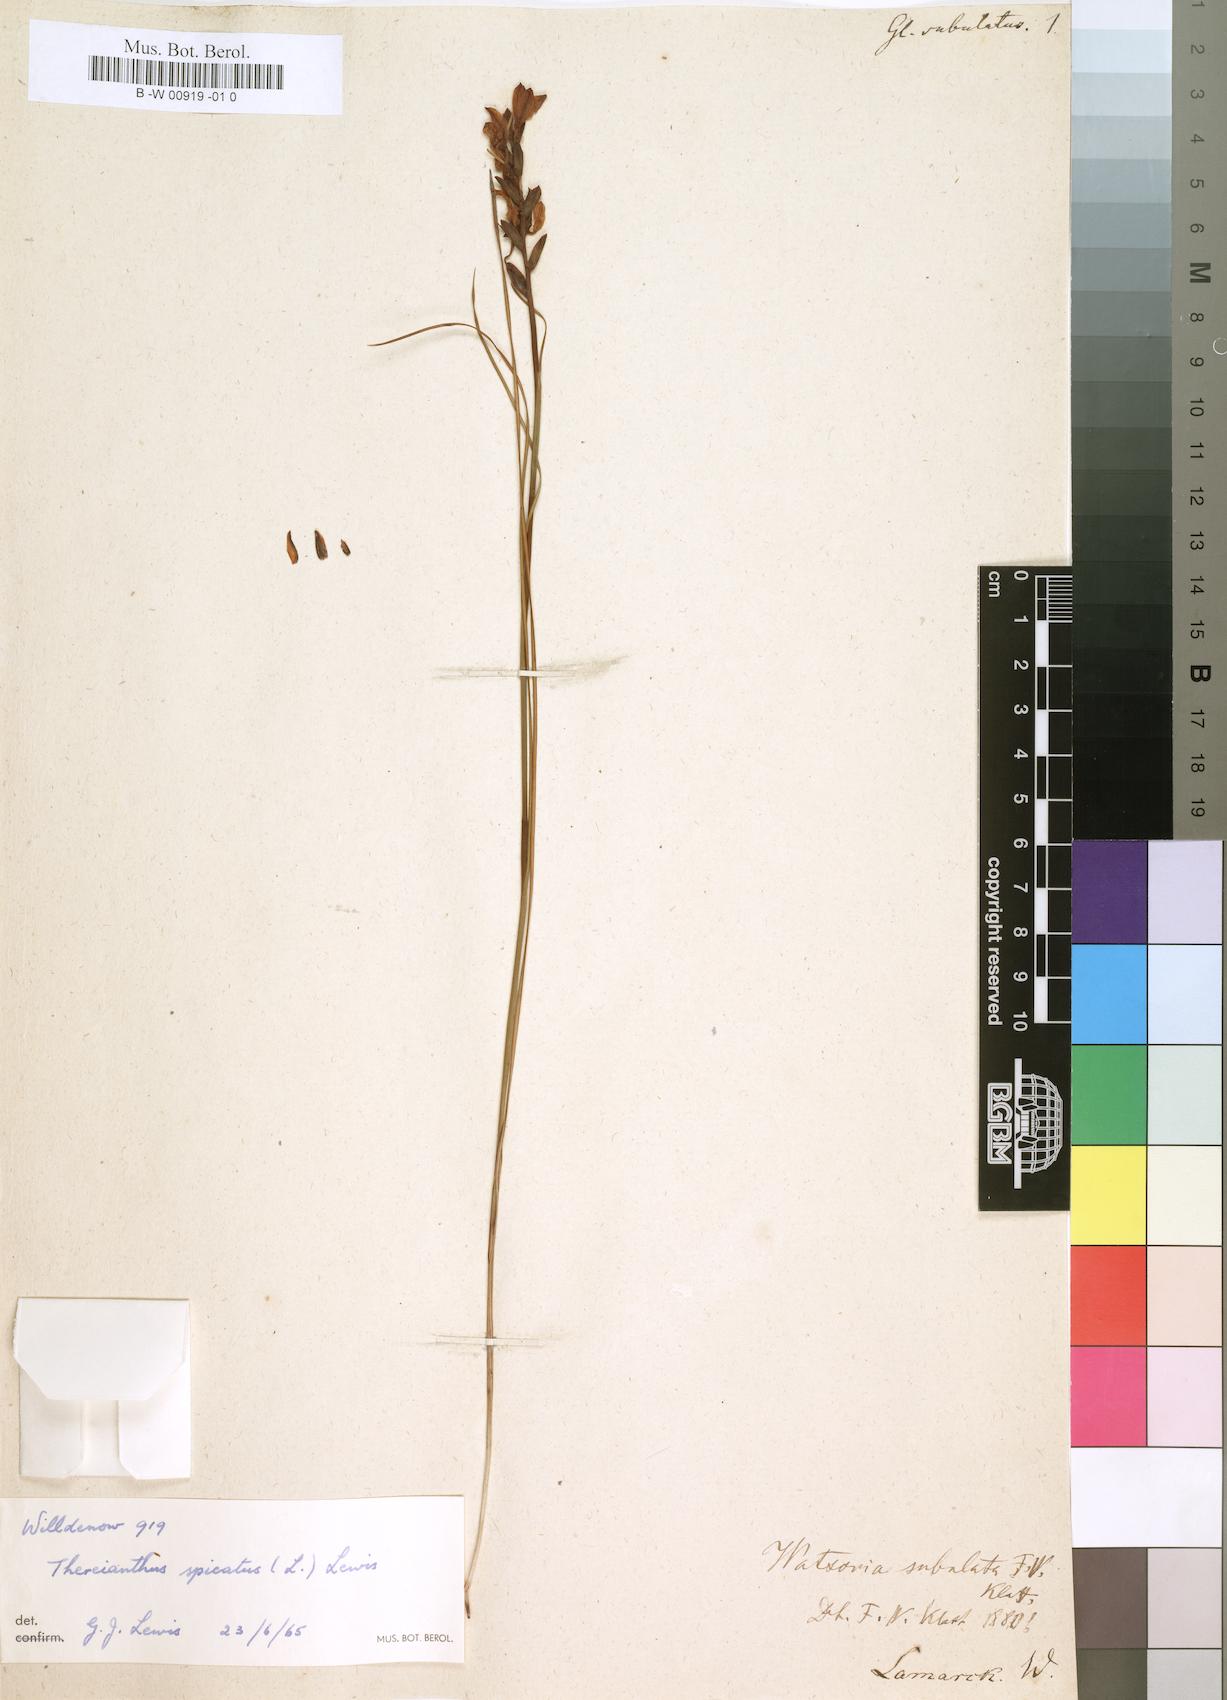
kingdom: Plantae
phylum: Tracheophyta
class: Liliopsida
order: Asparagales
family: Iridaceae
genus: Thereianthus
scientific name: Thereianthus bracteolatus
